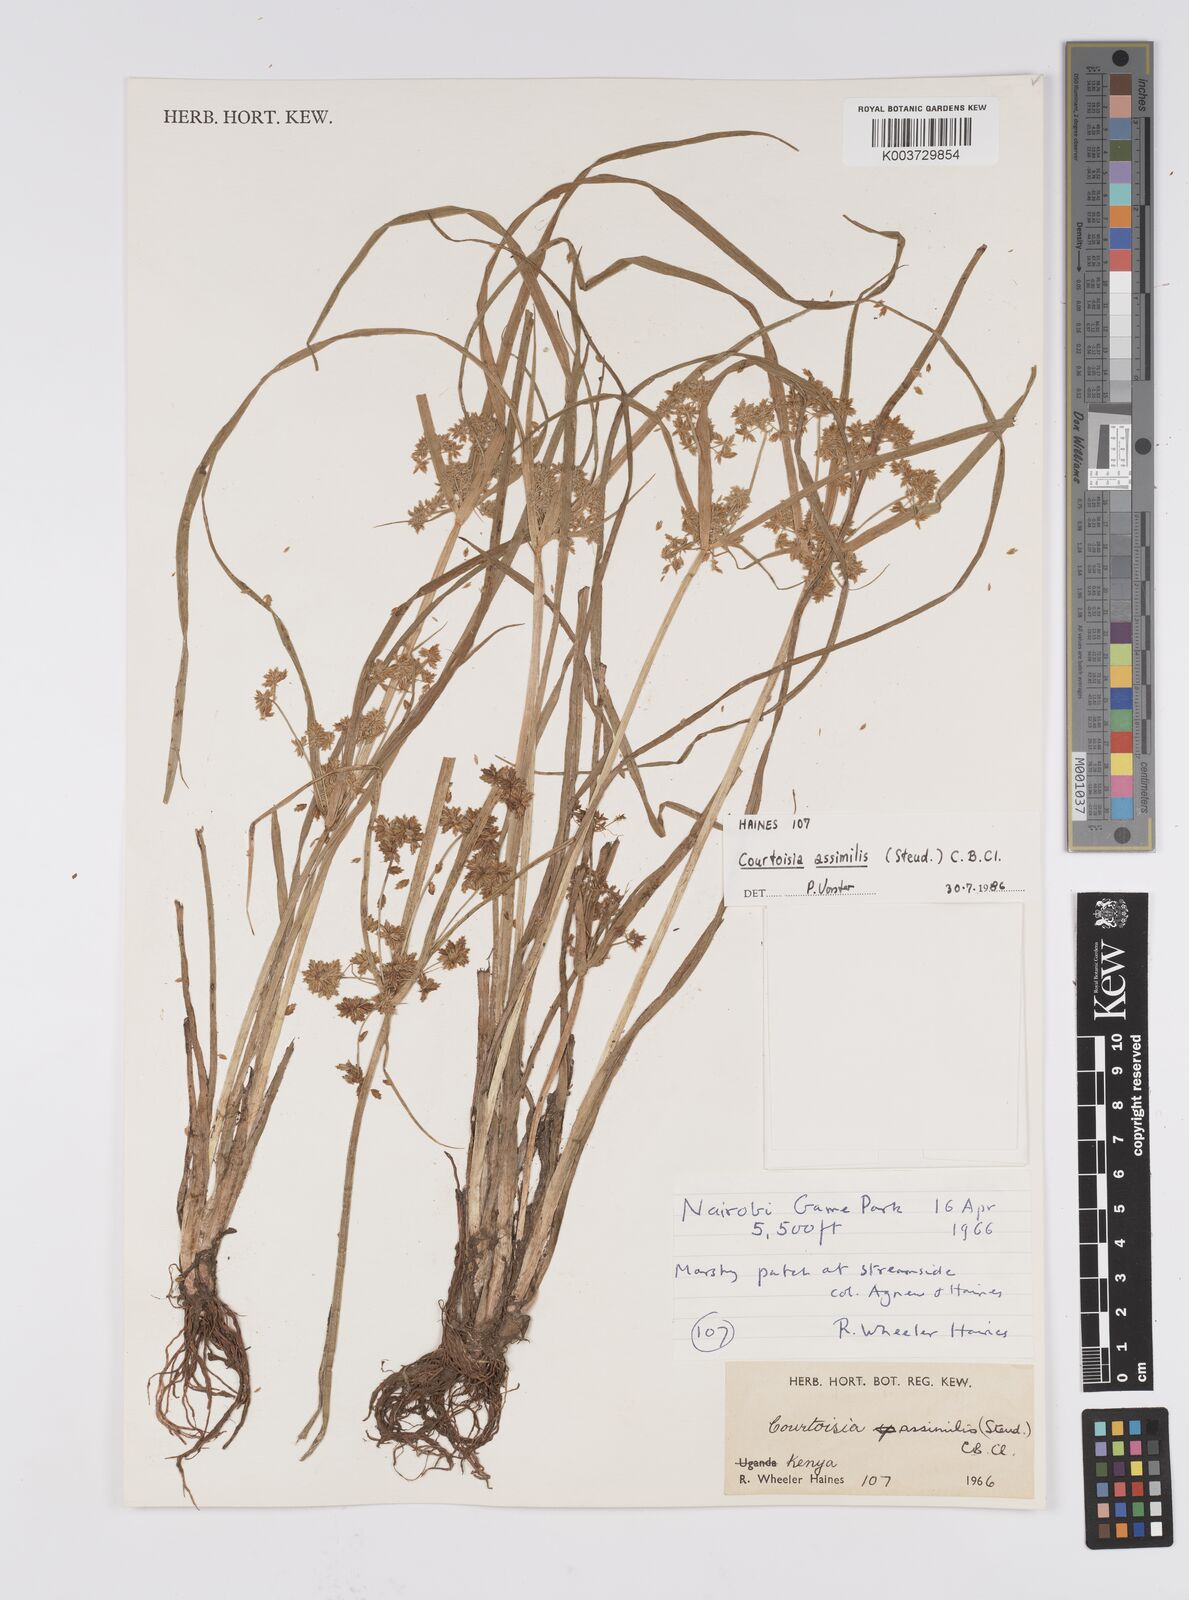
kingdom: Plantae
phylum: Tracheophyta
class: Liliopsida
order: Poales
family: Cyperaceae
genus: Cyperus
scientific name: Cyperus assimilis
